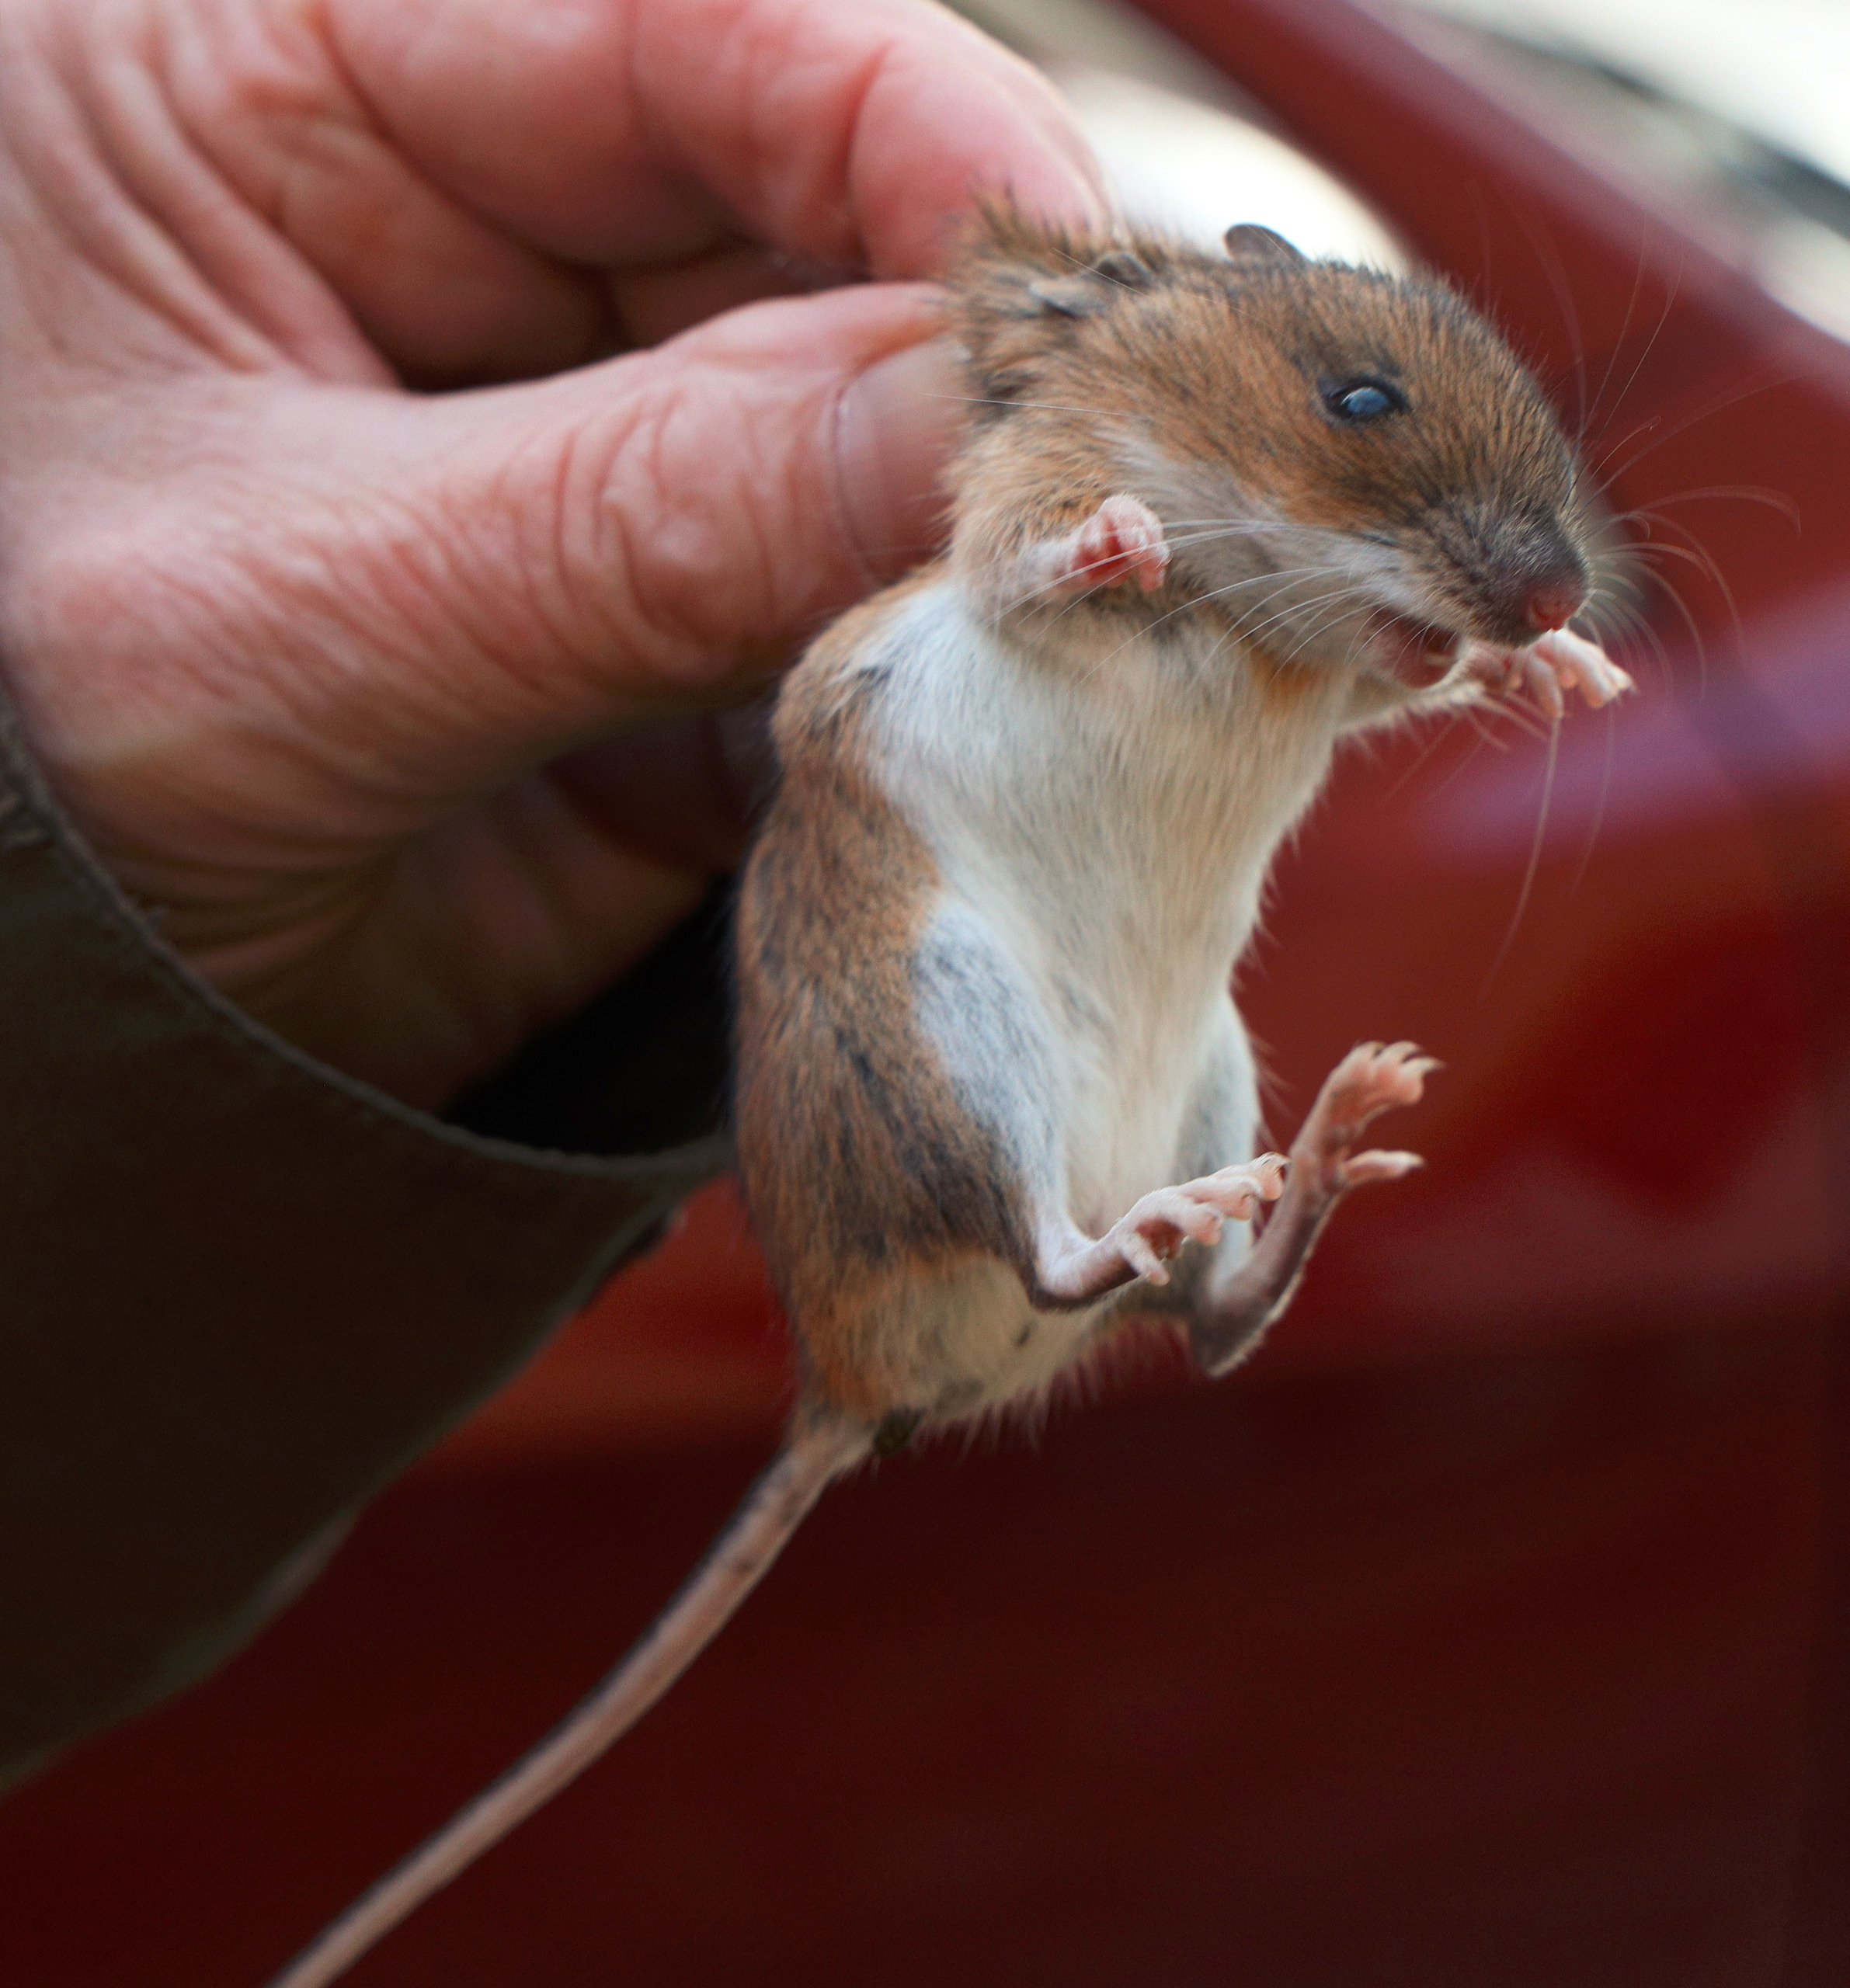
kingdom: Animalia
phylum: Chordata
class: Mammalia
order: Rodentia
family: Muridae
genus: Apodemus
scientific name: Apodemus flavicollis
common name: Halsbåndmus
